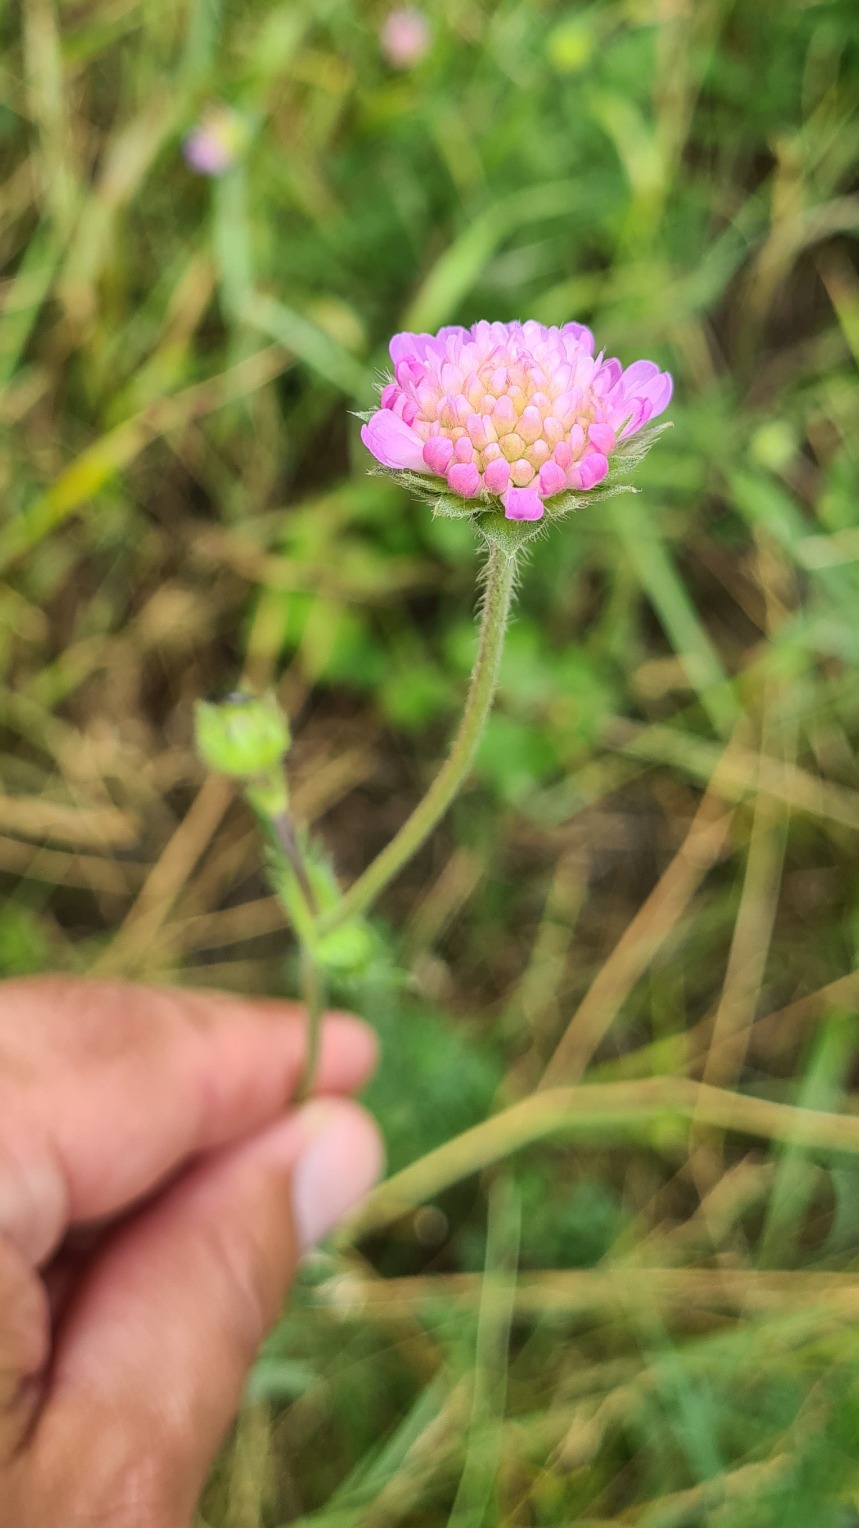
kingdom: Plantae
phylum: Tracheophyta
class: Magnoliopsida
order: Dipsacales
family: Caprifoliaceae
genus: Knautia
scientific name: Knautia arvensis
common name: Blåhat
